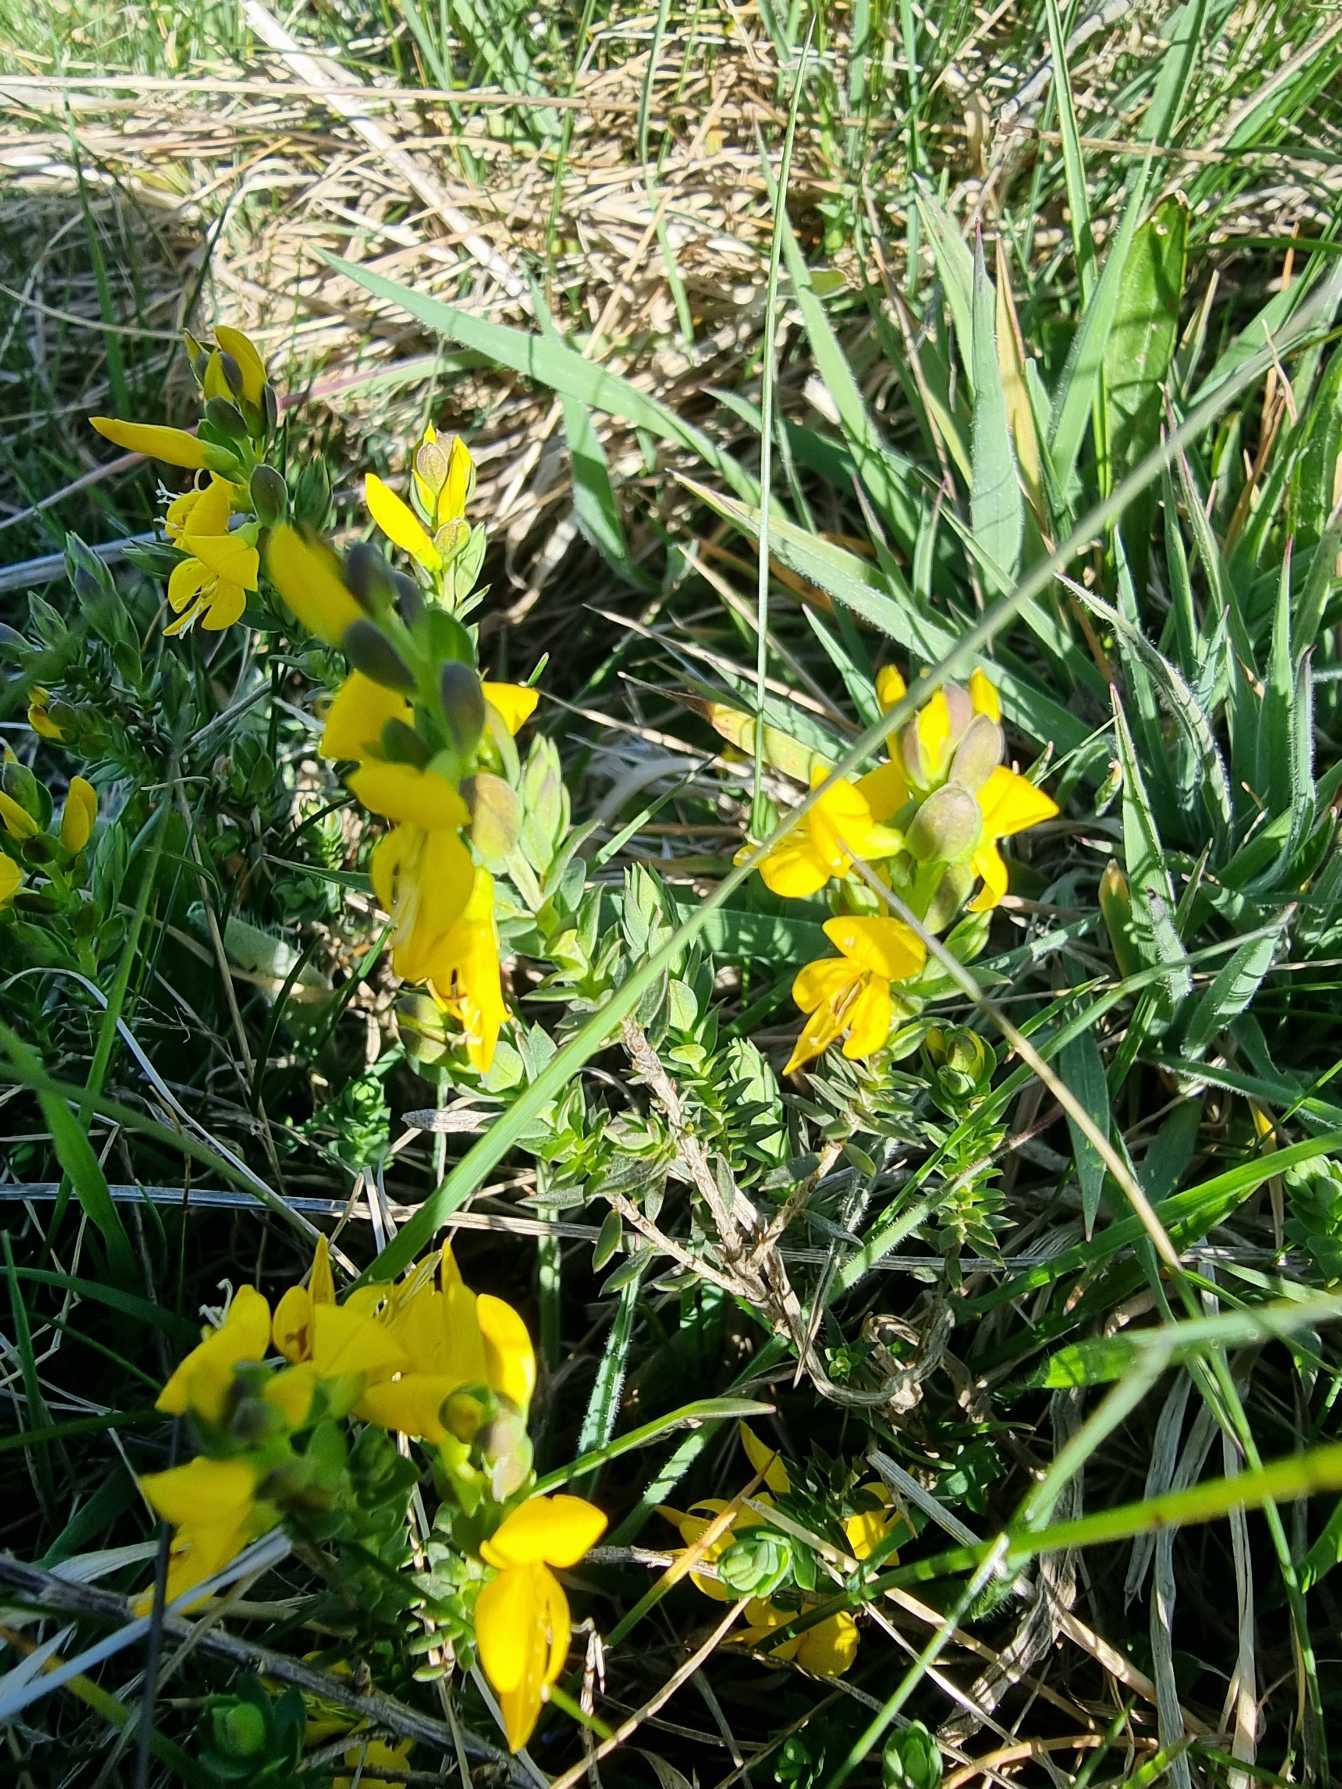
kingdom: Plantae
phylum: Tracheophyta
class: Magnoliopsida
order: Fabales
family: Fabaceae
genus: Genista
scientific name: Genista anglica
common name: Engelsk visse
